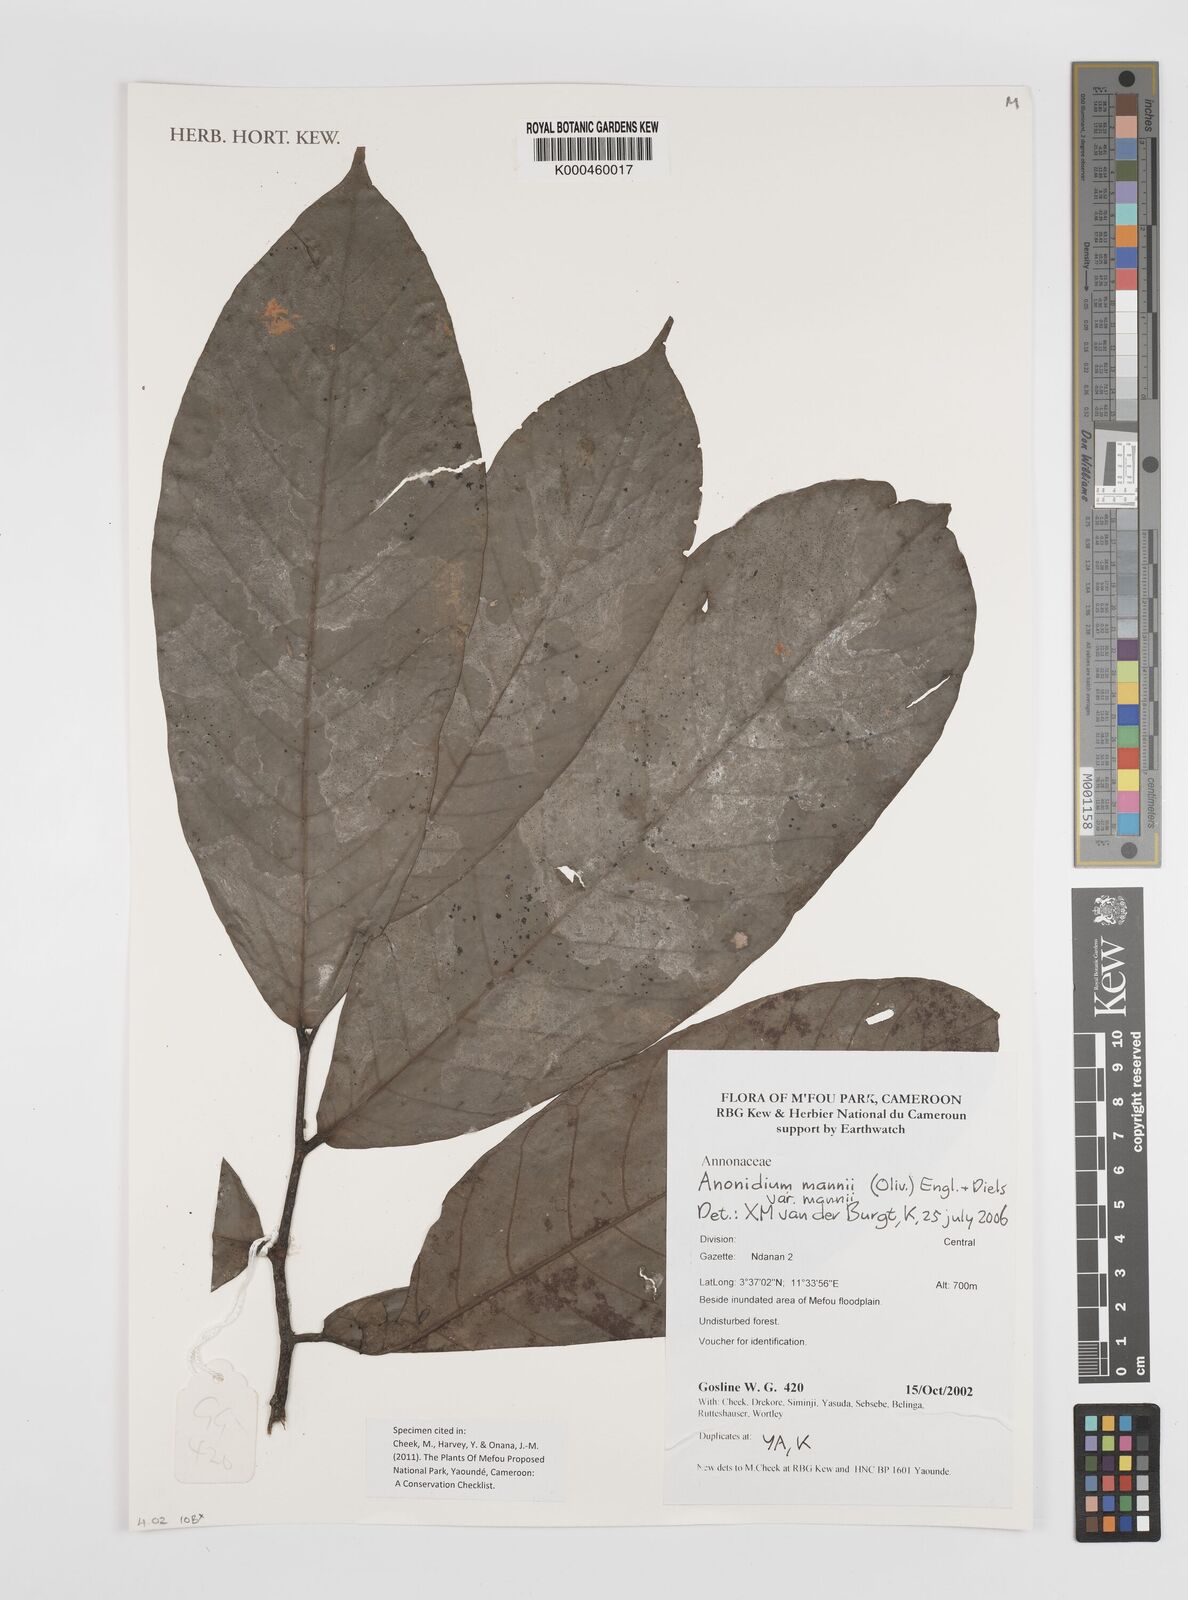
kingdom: Plantae
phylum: Tracheophyta
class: Magnoliopsida
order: Magnoliales
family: Annonaceae
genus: Anonidium
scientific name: Anonidium mannii
